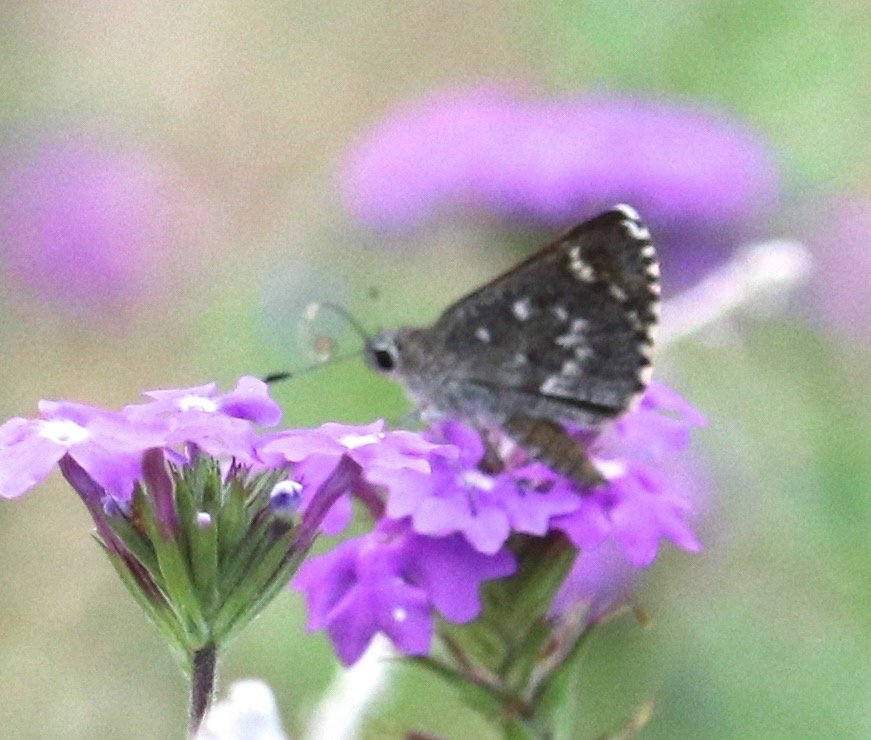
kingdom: Animalia
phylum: Arthropoda
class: Insecta
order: Lepidoptera
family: Hesperiidae
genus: Mastor
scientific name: Mastor aenus
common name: Bronze Roadside-Skipper
